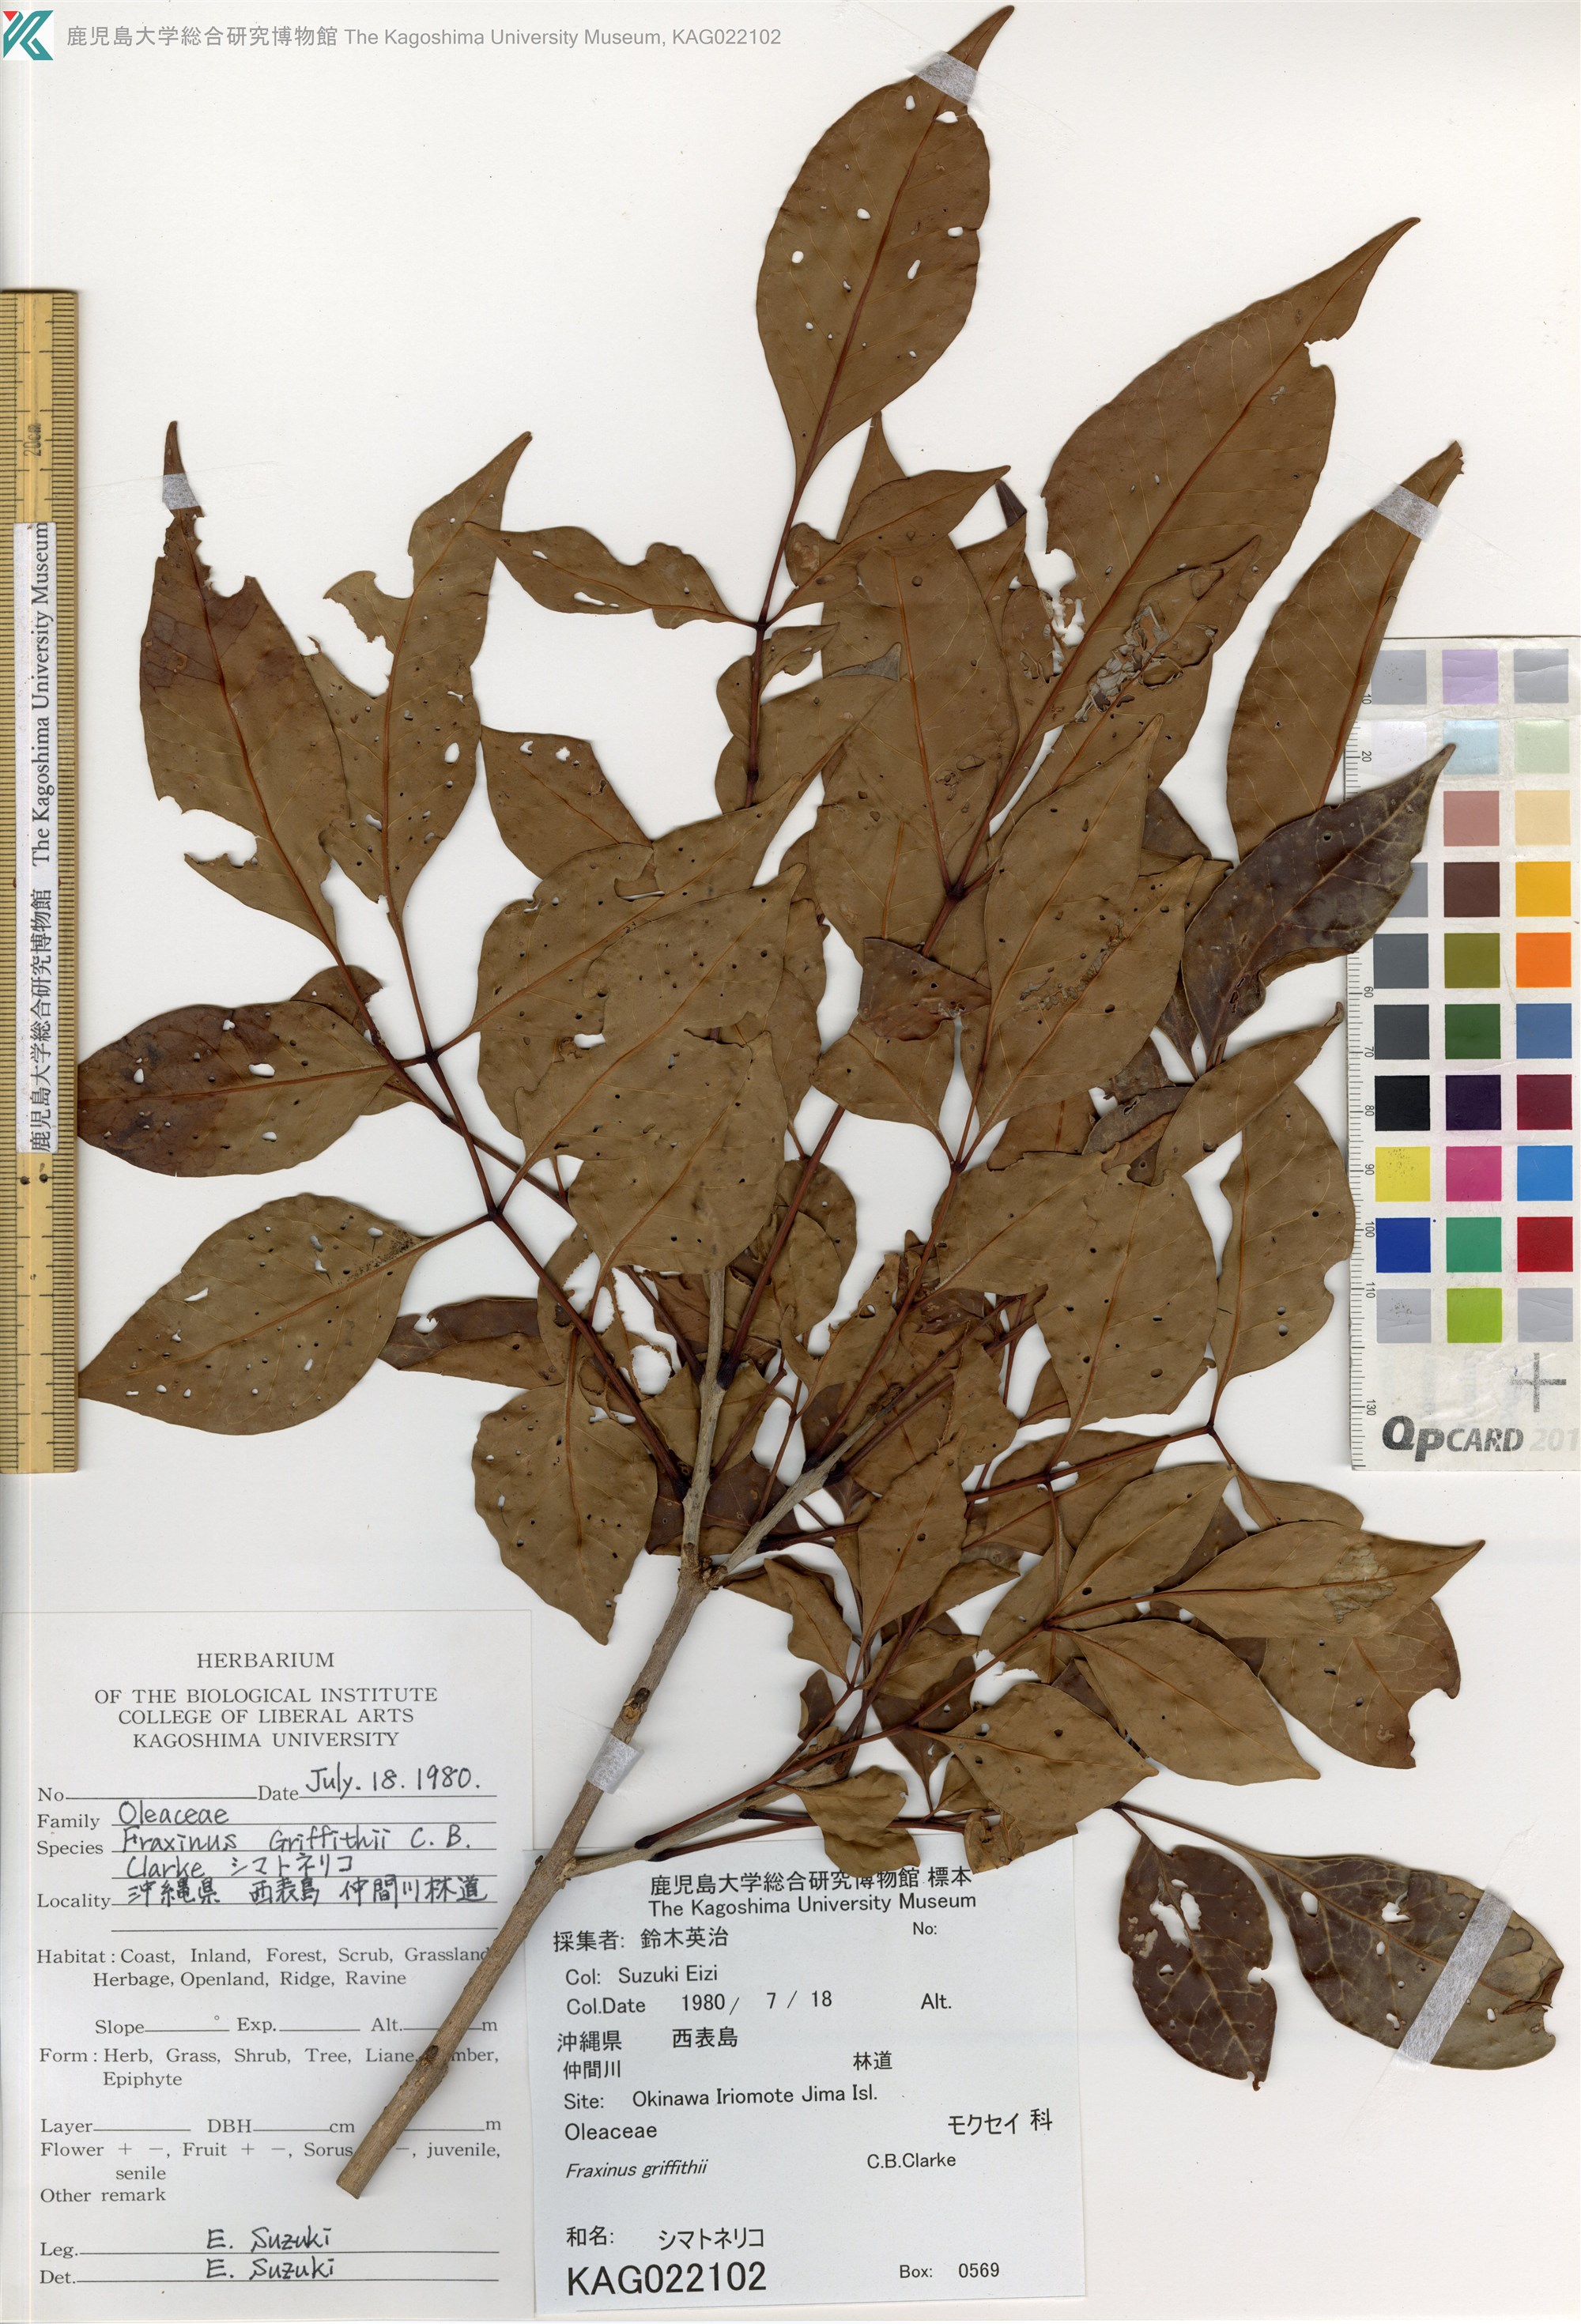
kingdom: Plantae
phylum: Tracheophyta
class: Magnoliopsida
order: Lamiales
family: Oleaceae
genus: Fraxinus
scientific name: Fraxinus griffithii
